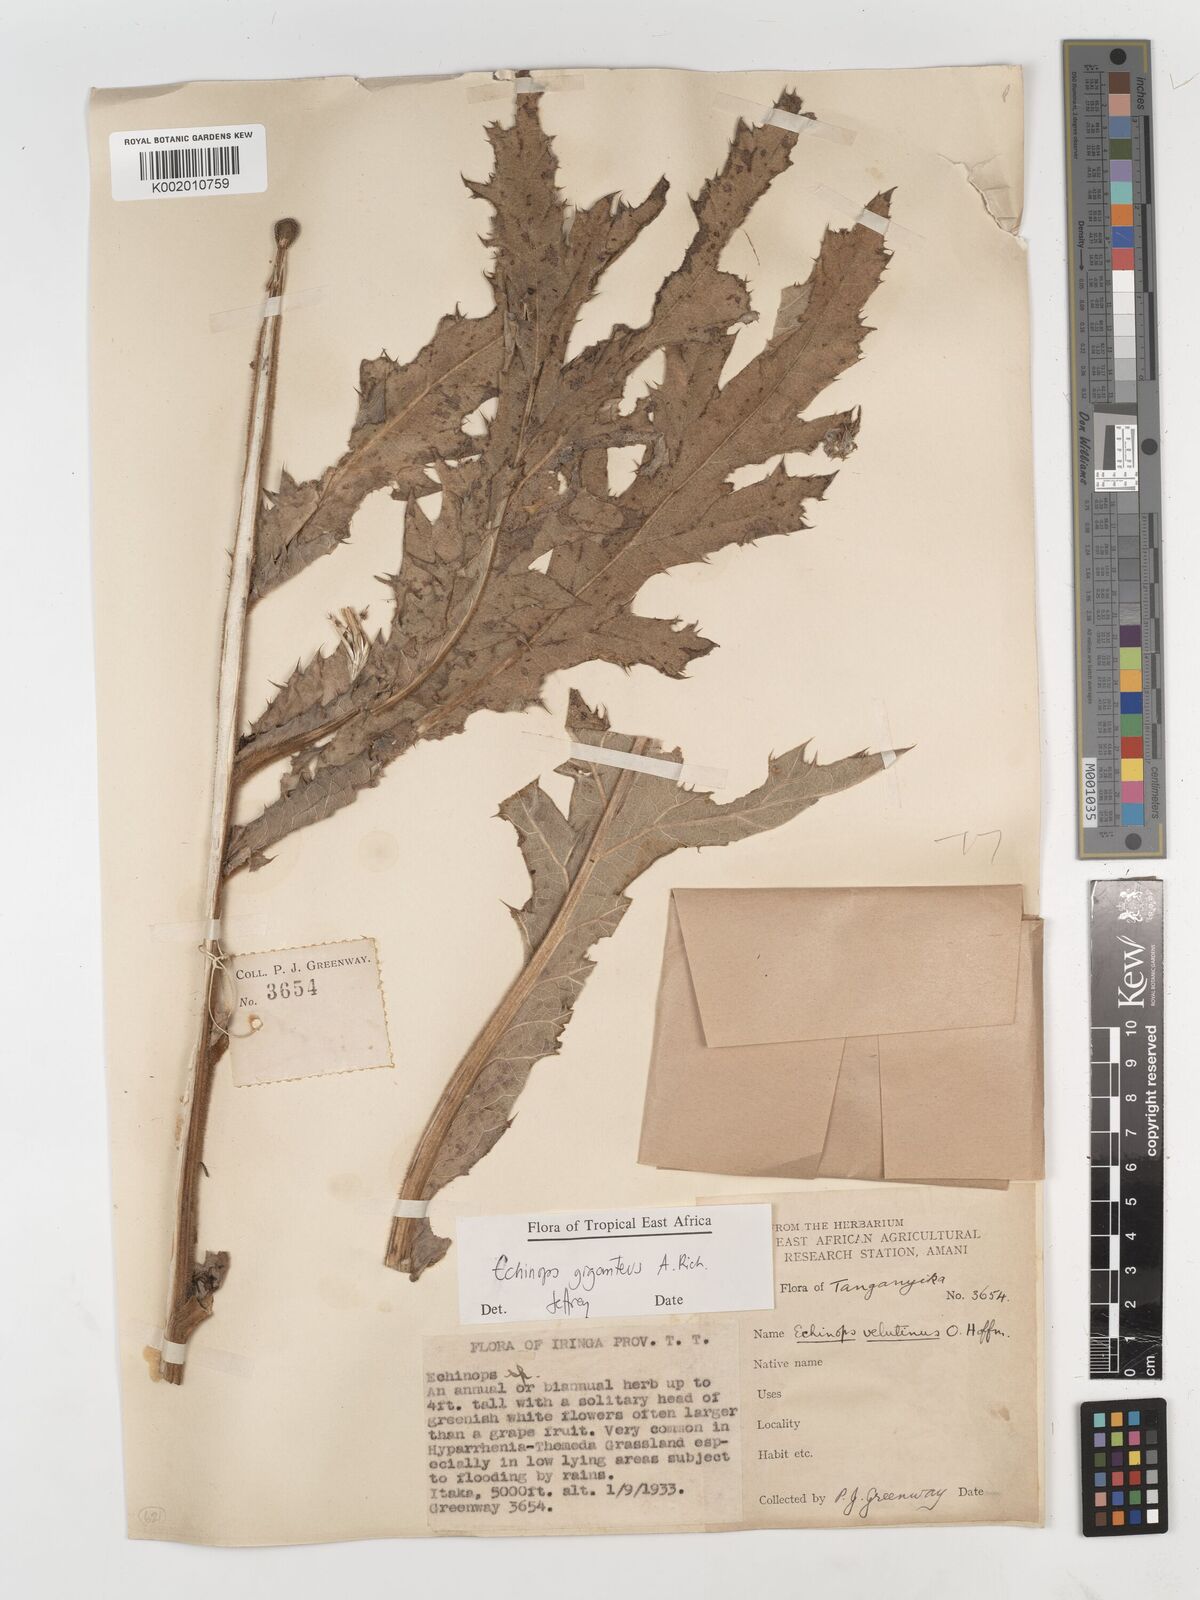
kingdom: Plantae
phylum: Tracheophyta
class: Magnoliopsida
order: Asterales
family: Asteraceae
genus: Echinops
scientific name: Echinops giganteus
